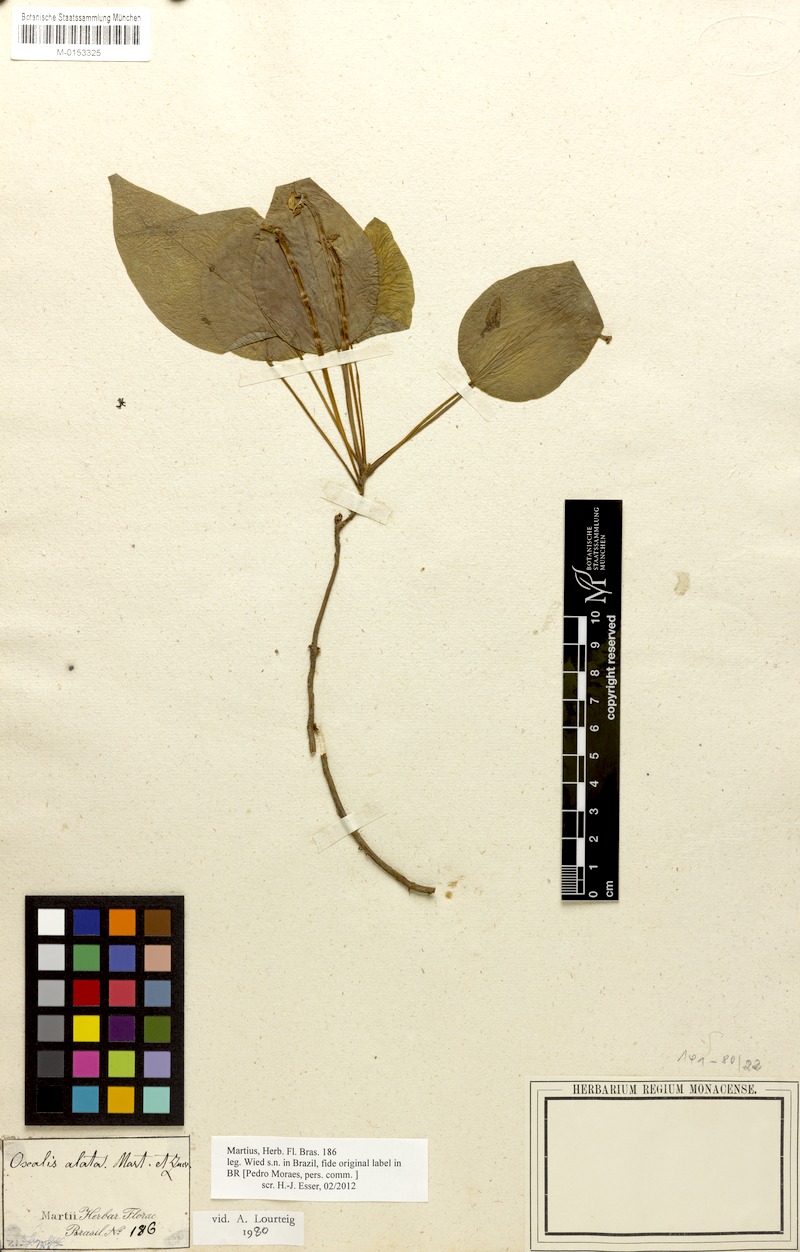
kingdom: Plantae
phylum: Tracheophyta
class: Magnoliopsida
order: Oxalidales
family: Oxalidaceae
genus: Oxalis
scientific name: Oxalis alata
